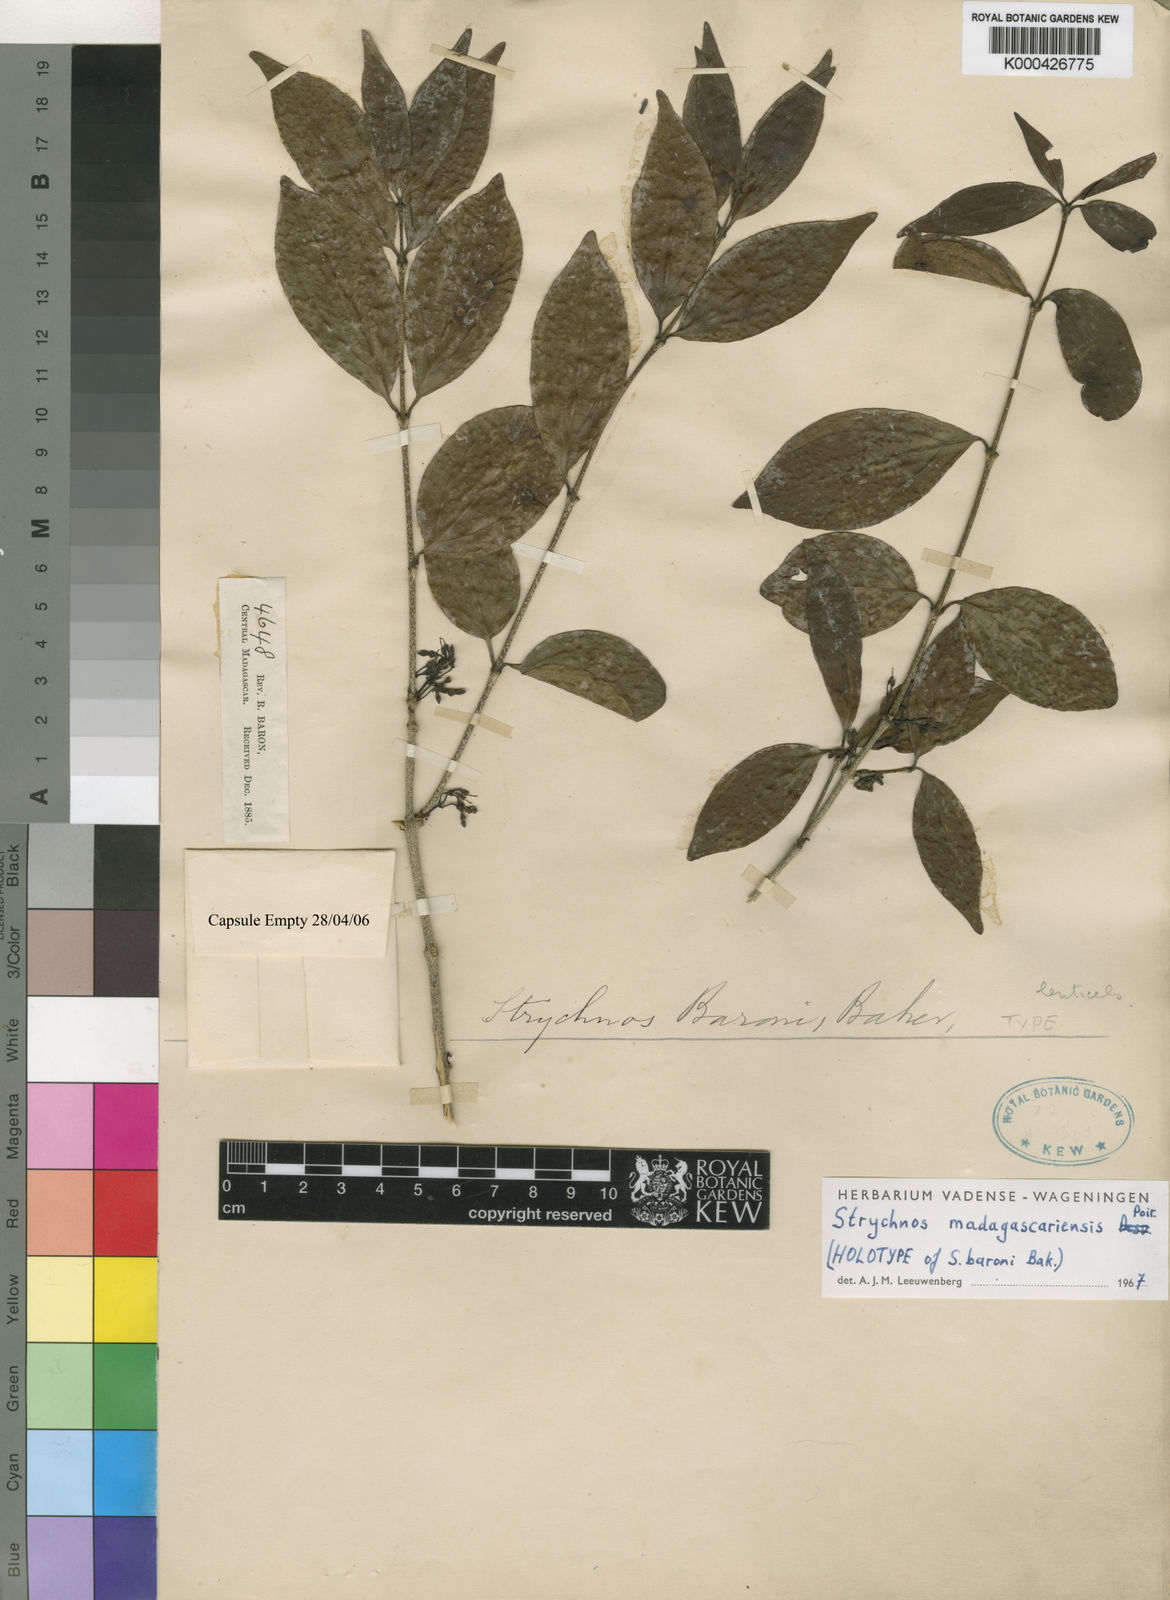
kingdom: Plantae
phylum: Tracheophyta
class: Magnoliopsida
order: Gentianales
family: Loganiaceae
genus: Strychnos
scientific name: Strychnos madagascariensis
